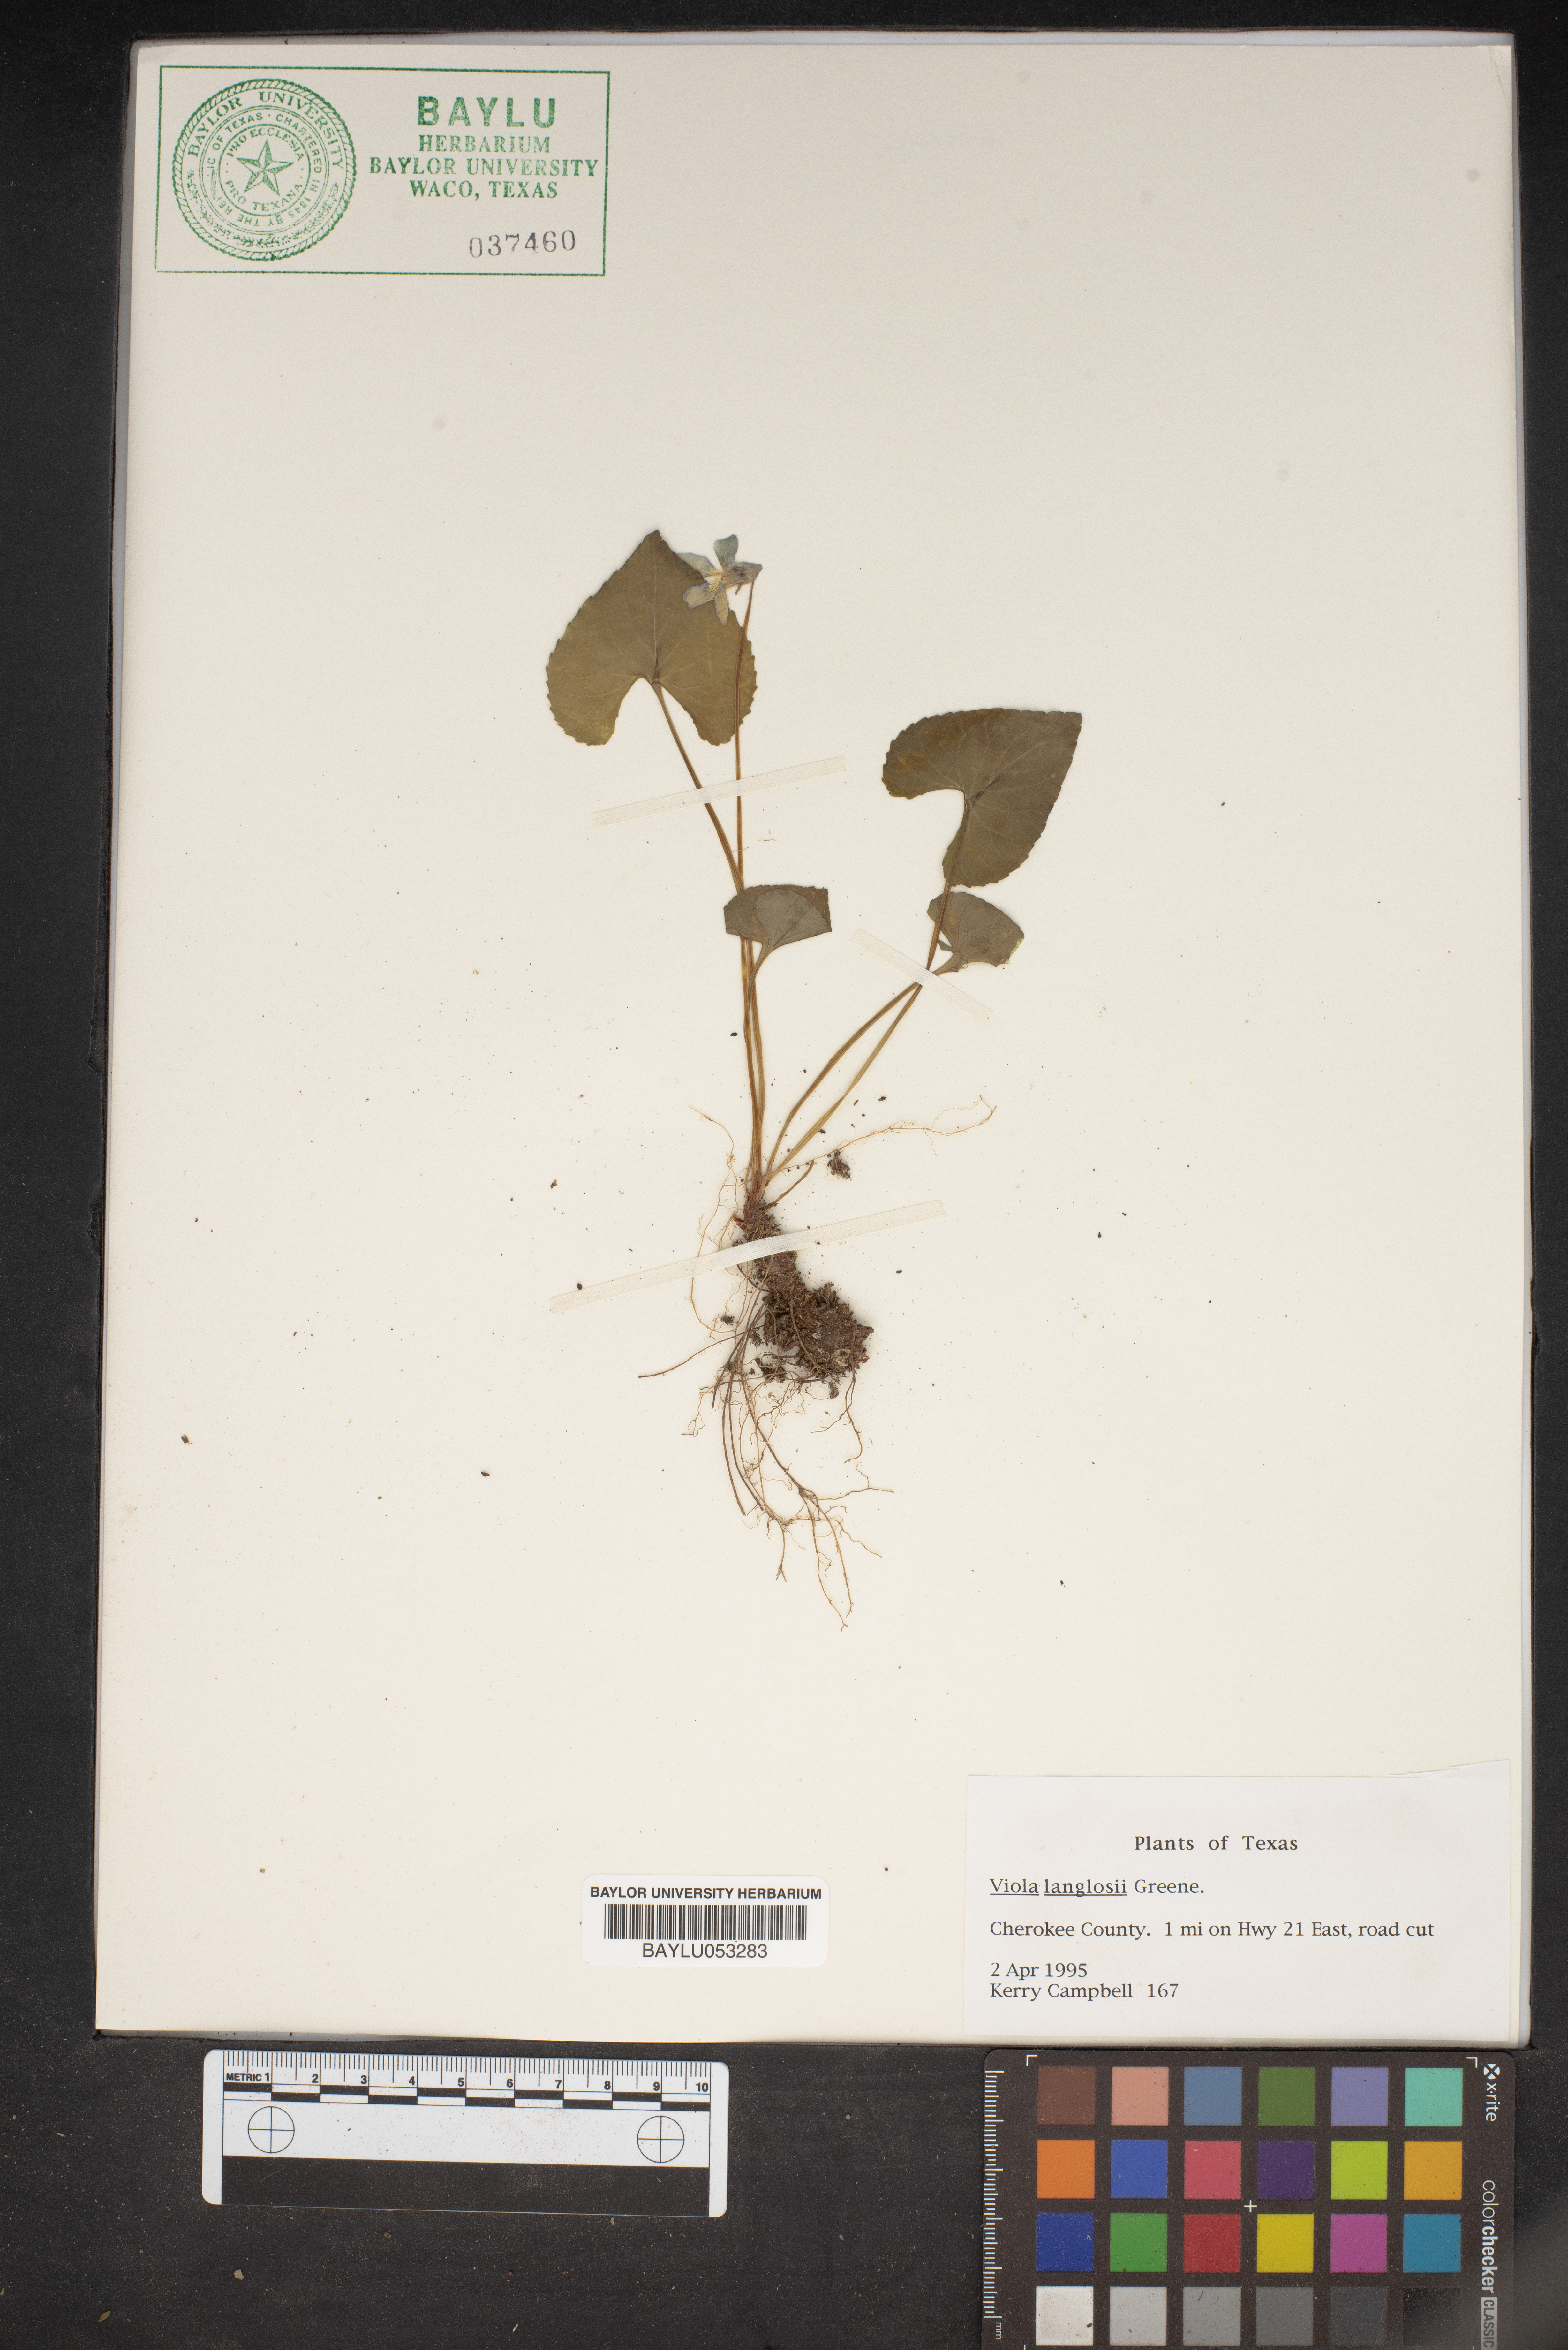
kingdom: Plantae
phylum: Tracheophyta
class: Magnoliopsida
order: Malpighiales
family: Violaceae
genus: Viola
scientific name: Viola langloisii
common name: Langlois' violet
